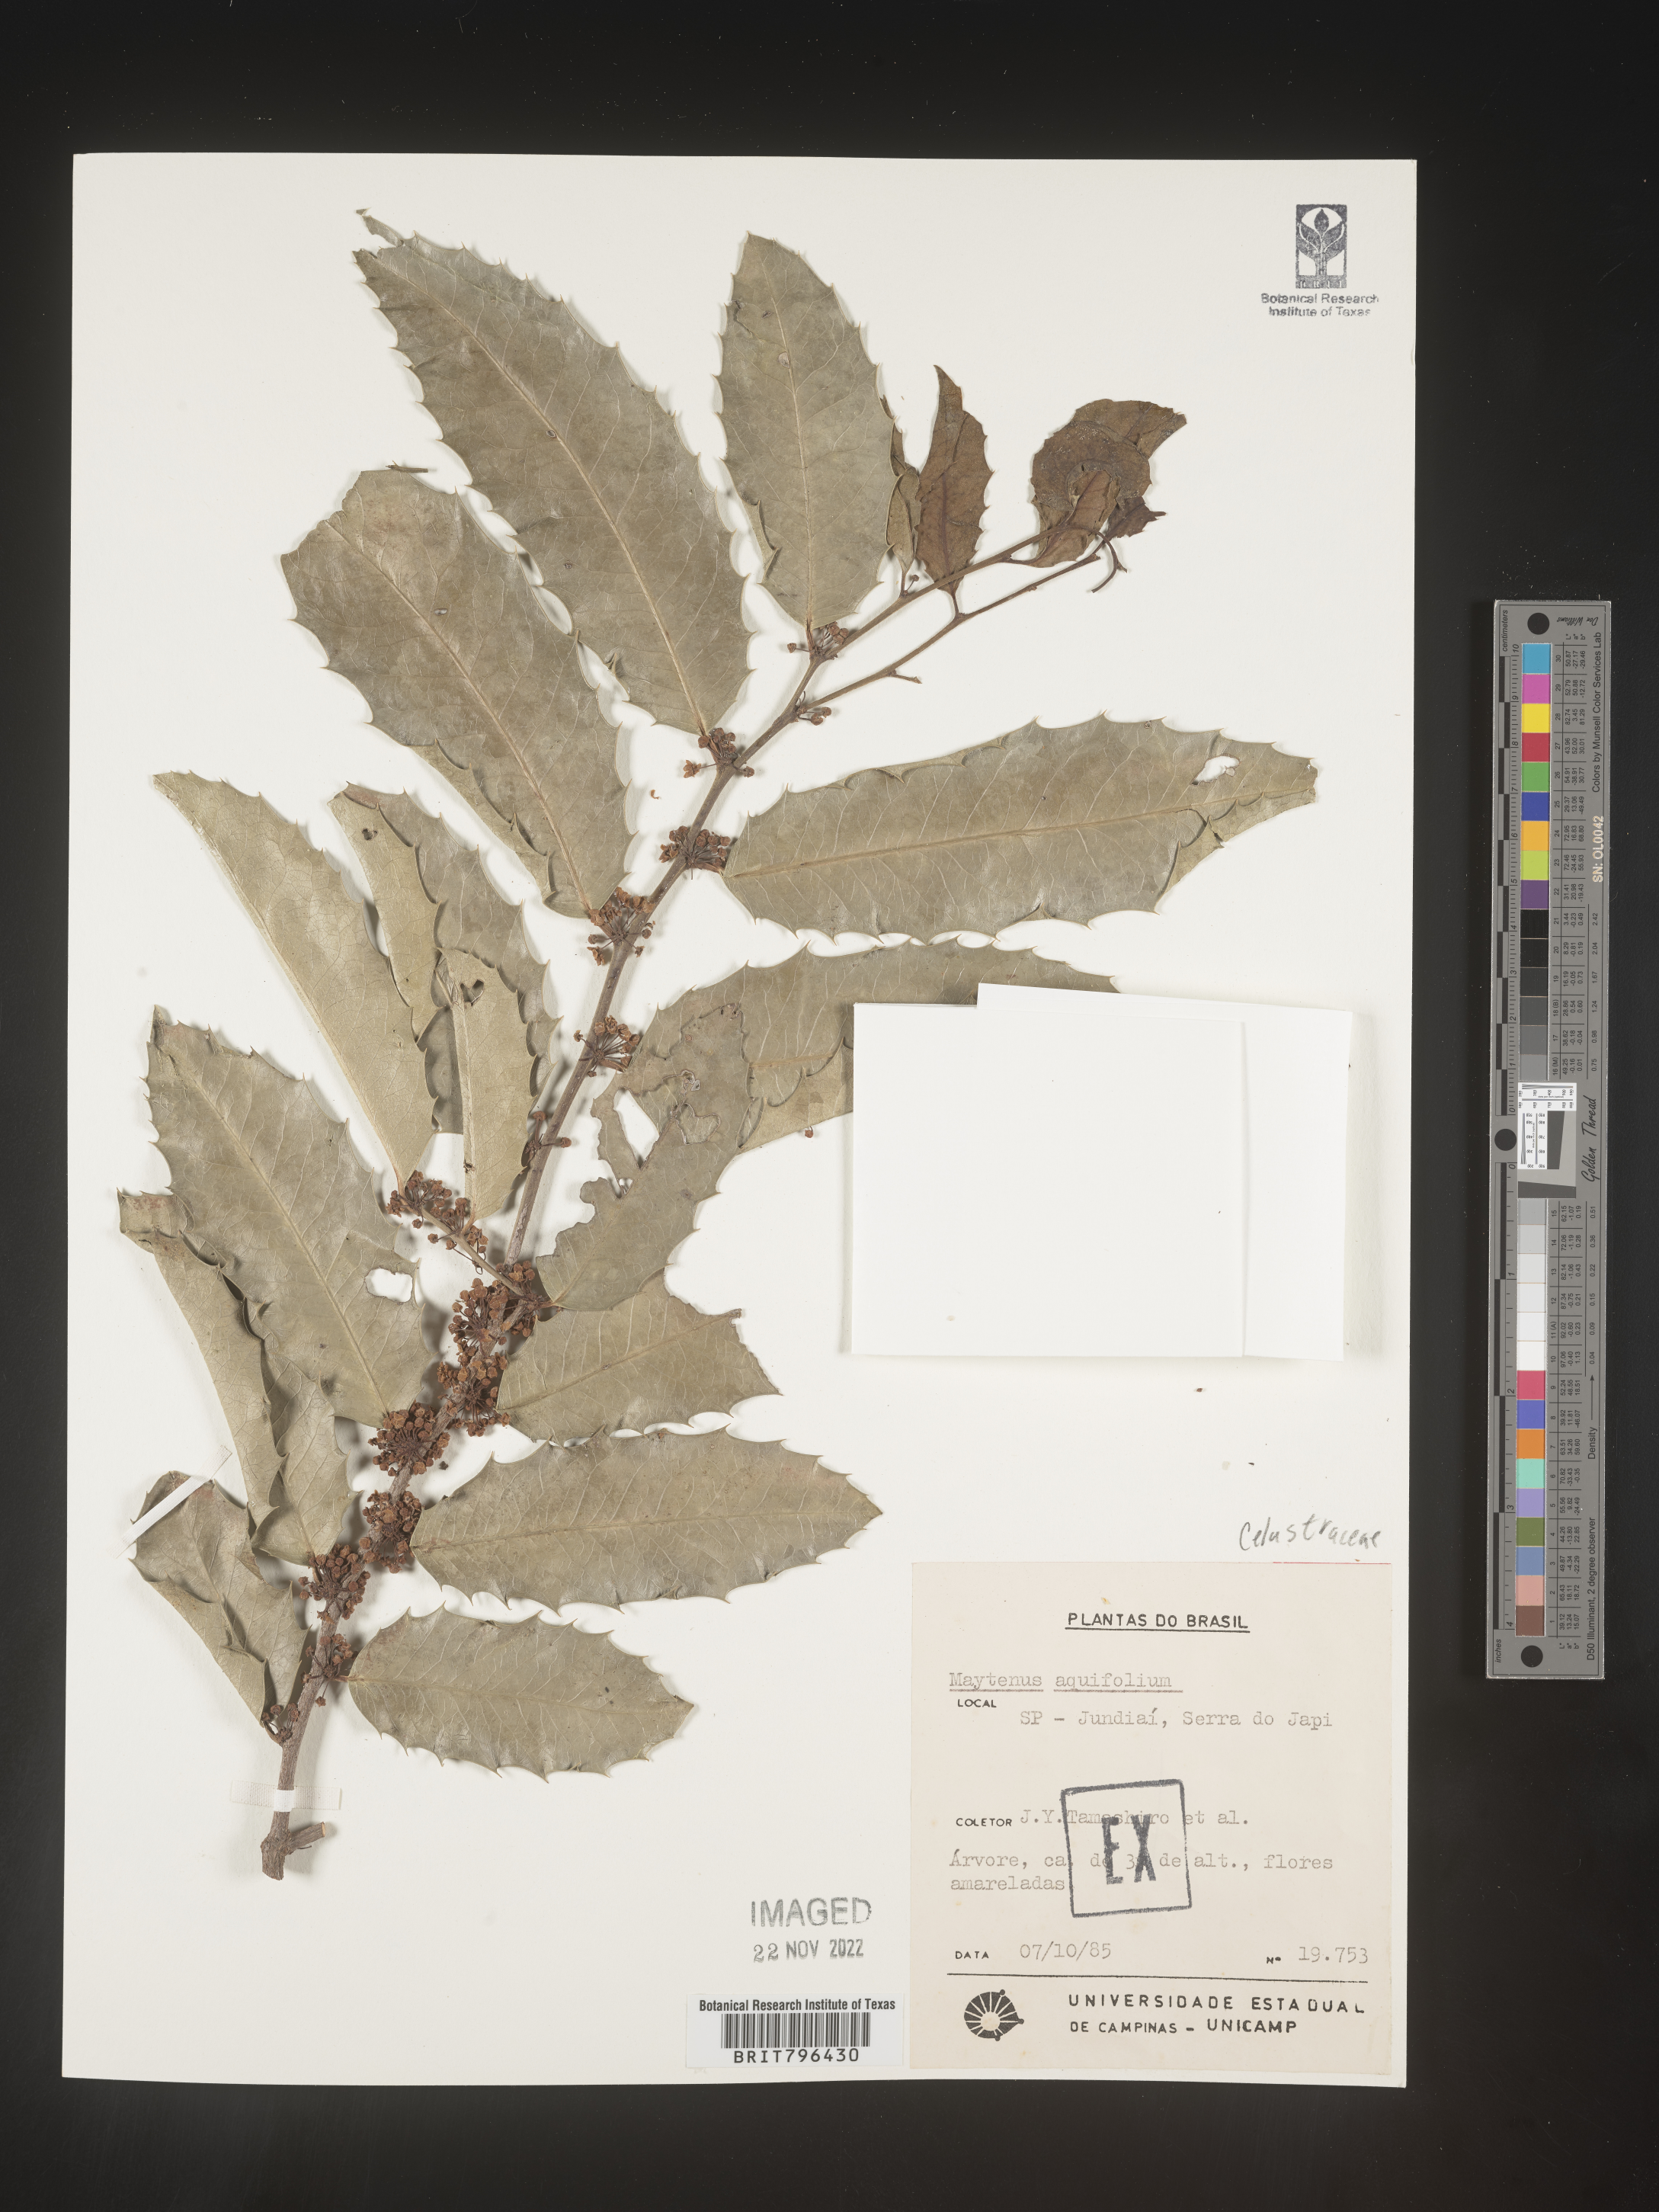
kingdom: Plantae
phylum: Tracheophyta
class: Magnoliopsida
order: Celastrales
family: Celastraceae
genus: Maytenus
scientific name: Maytenus
